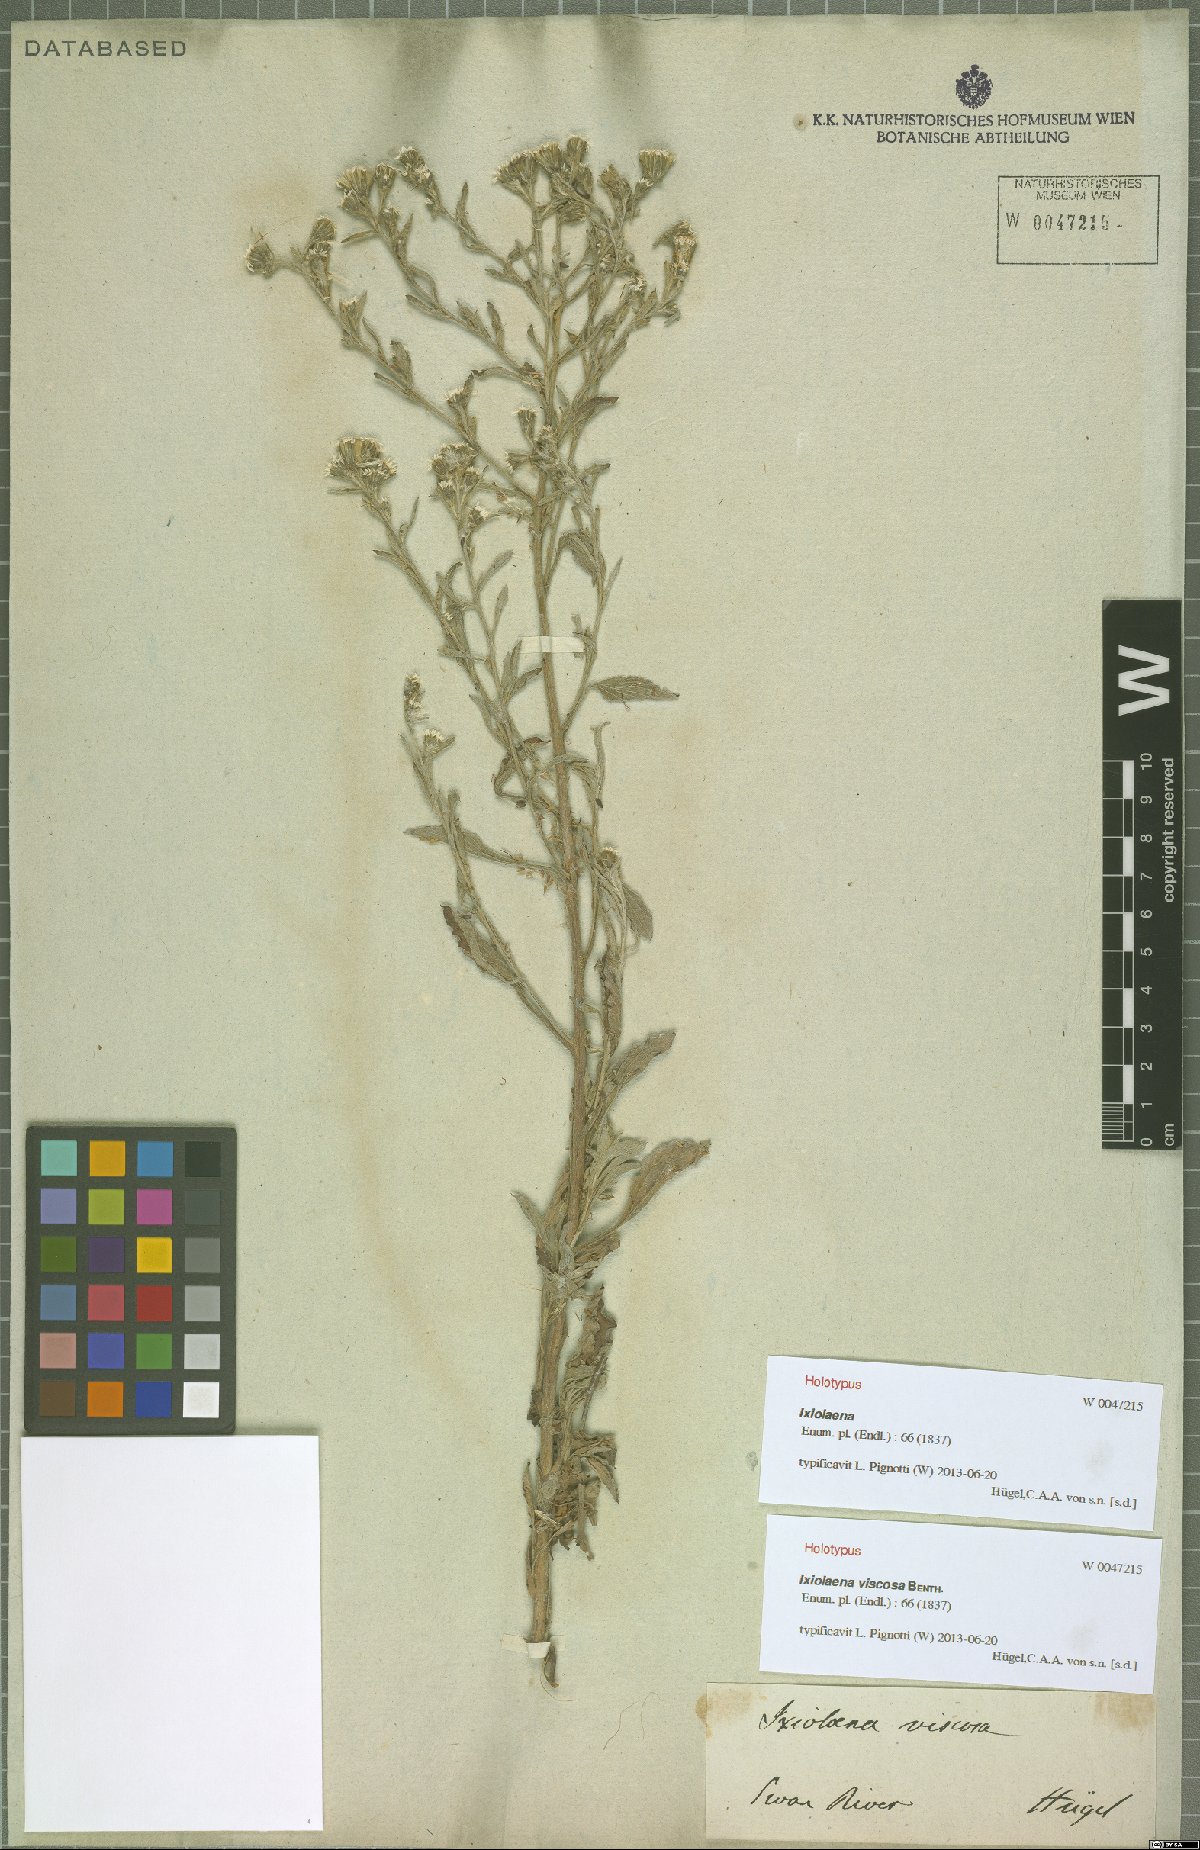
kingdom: Plantae
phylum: Tracheophyta
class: Magnoliopsida
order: Asterales
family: Asteraceae
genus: Ixiolaena
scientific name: Ixiolaena viscosa
